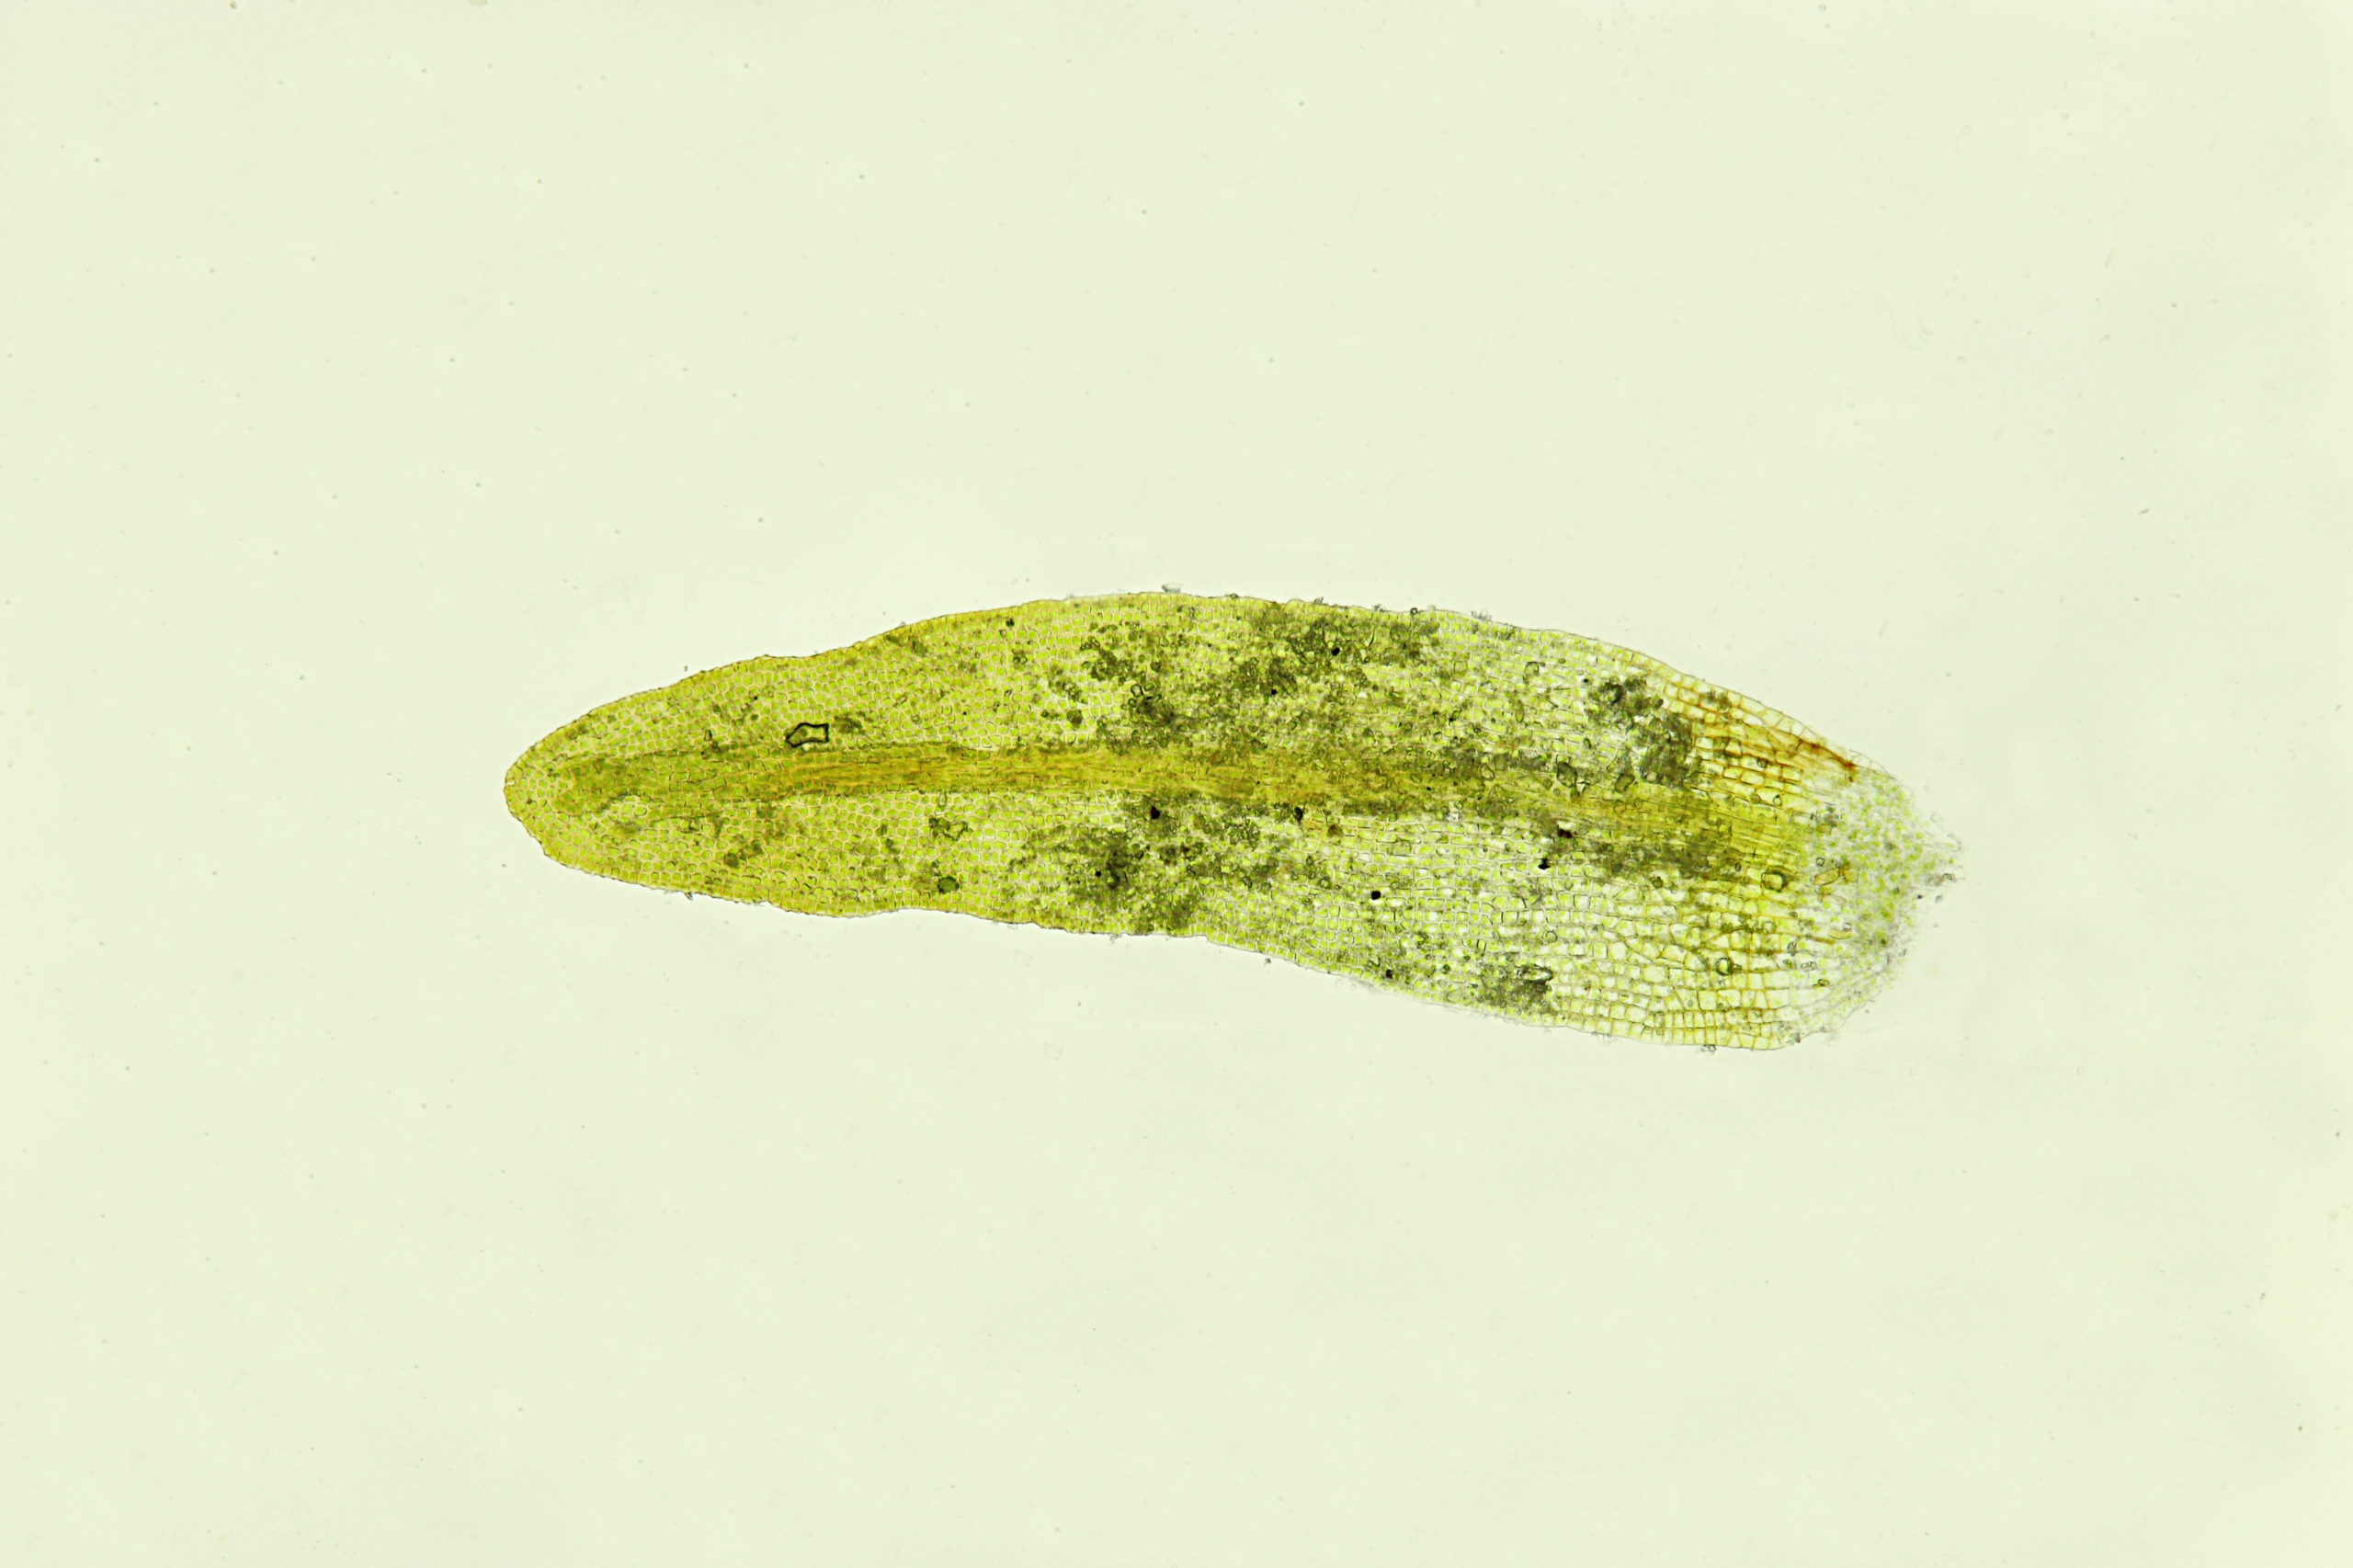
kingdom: Plantae
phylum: Bryophyta
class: Bryopsida
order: Pottiales
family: Pottiaceae
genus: Geheebia
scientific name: Geheebia tophacea
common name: Papilløs kalktuemos
